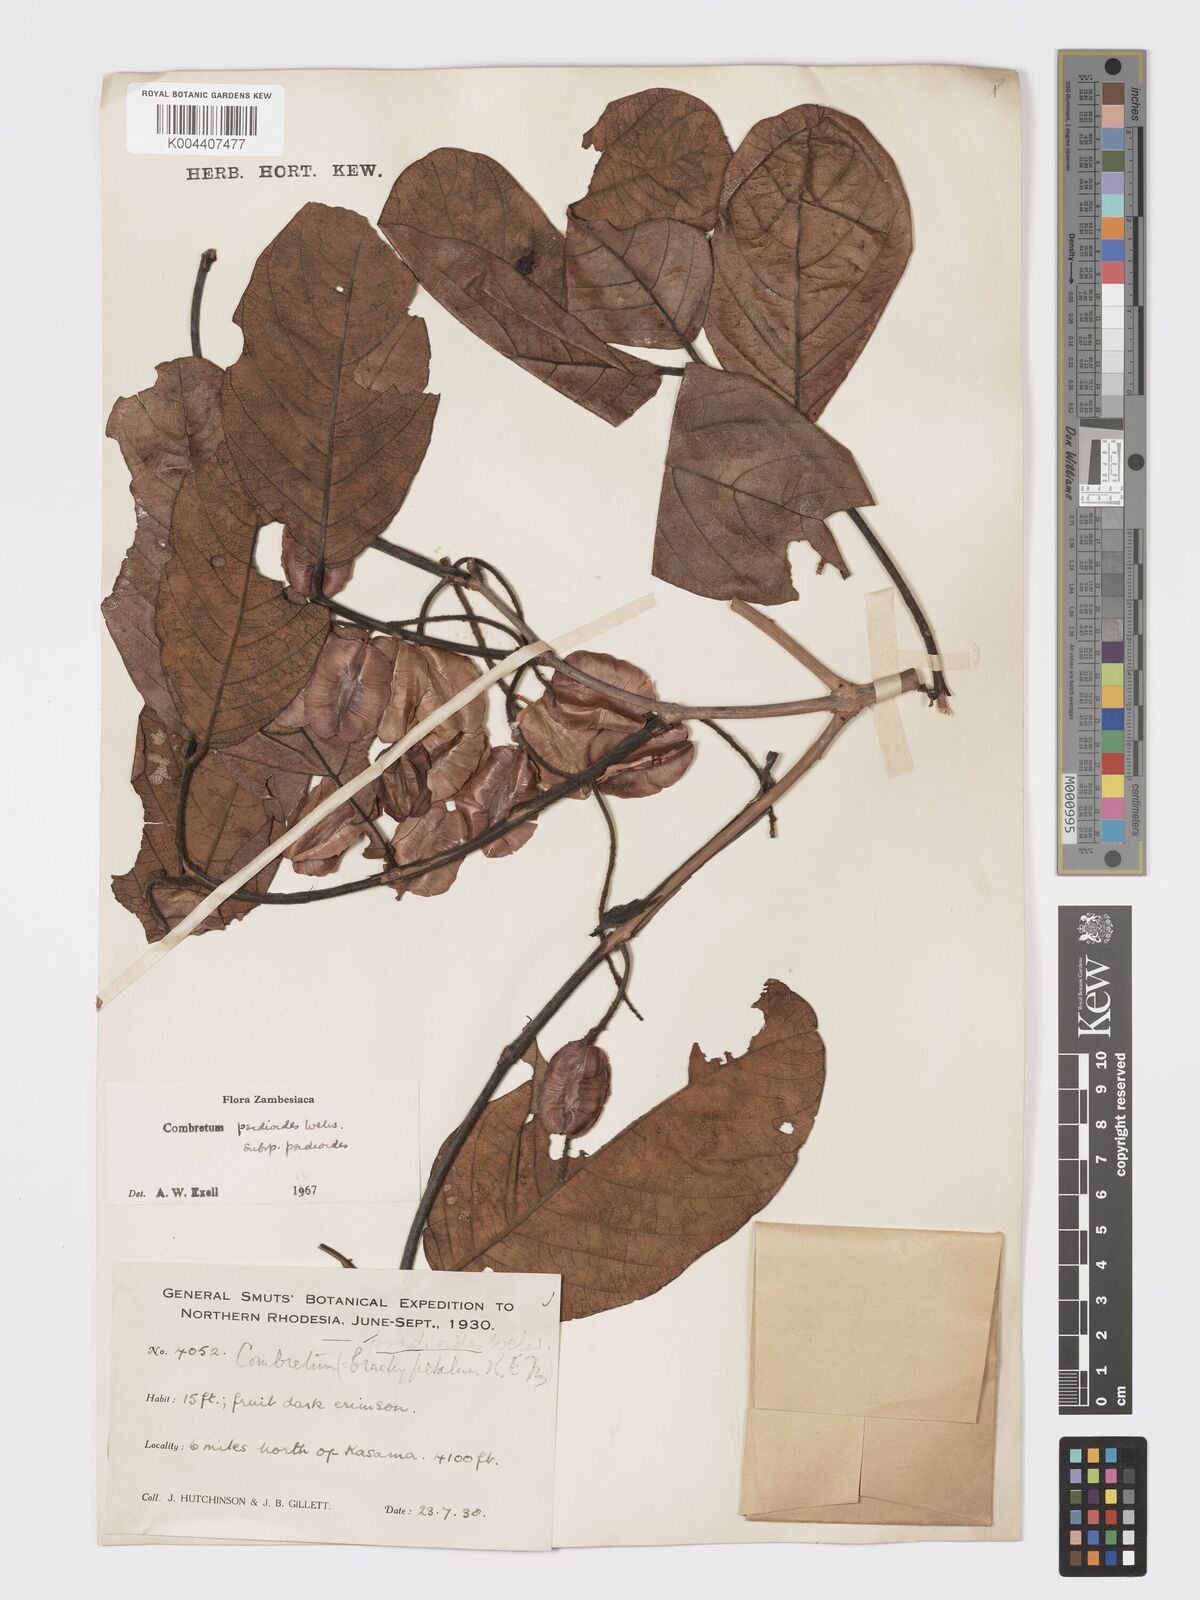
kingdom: Plantae
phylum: Tracheophyta
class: Magnoliopsida
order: Myrtales
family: Combretaceae
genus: Combretum
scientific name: Combretum psidioides
